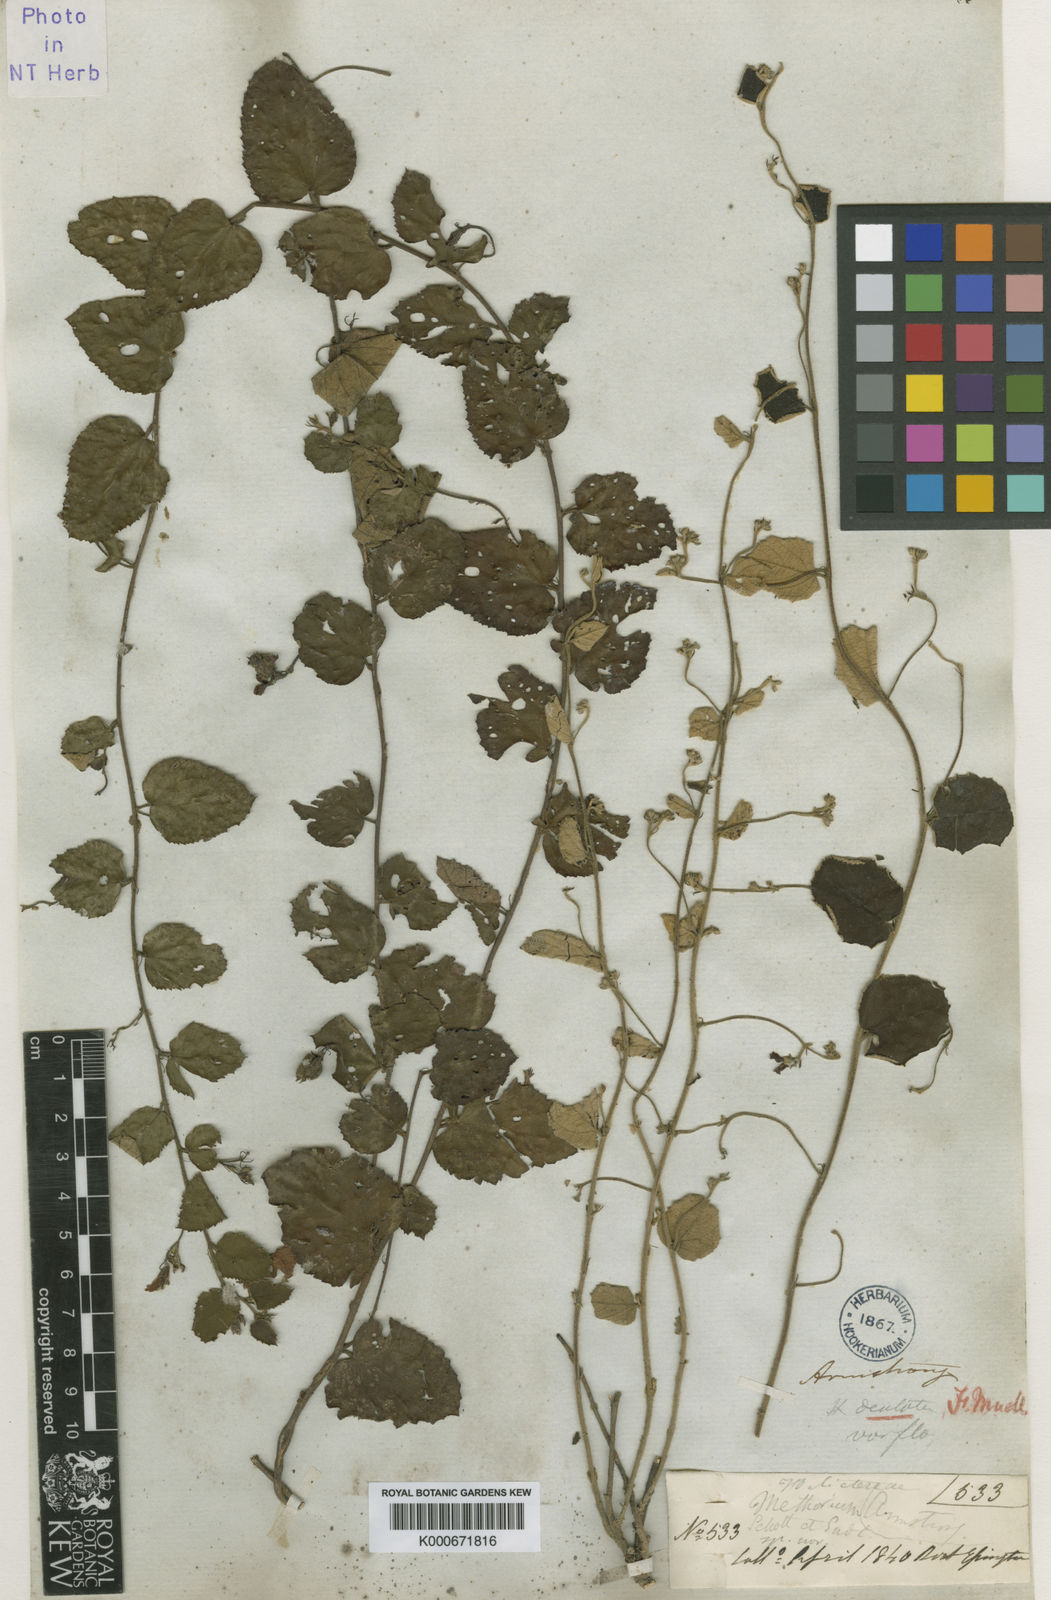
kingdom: Plantae
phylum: Tracheophyta
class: Magnoliopsida
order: Malvales
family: Malvaceae
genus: Helicteres
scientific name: Helicteres flagellaris
